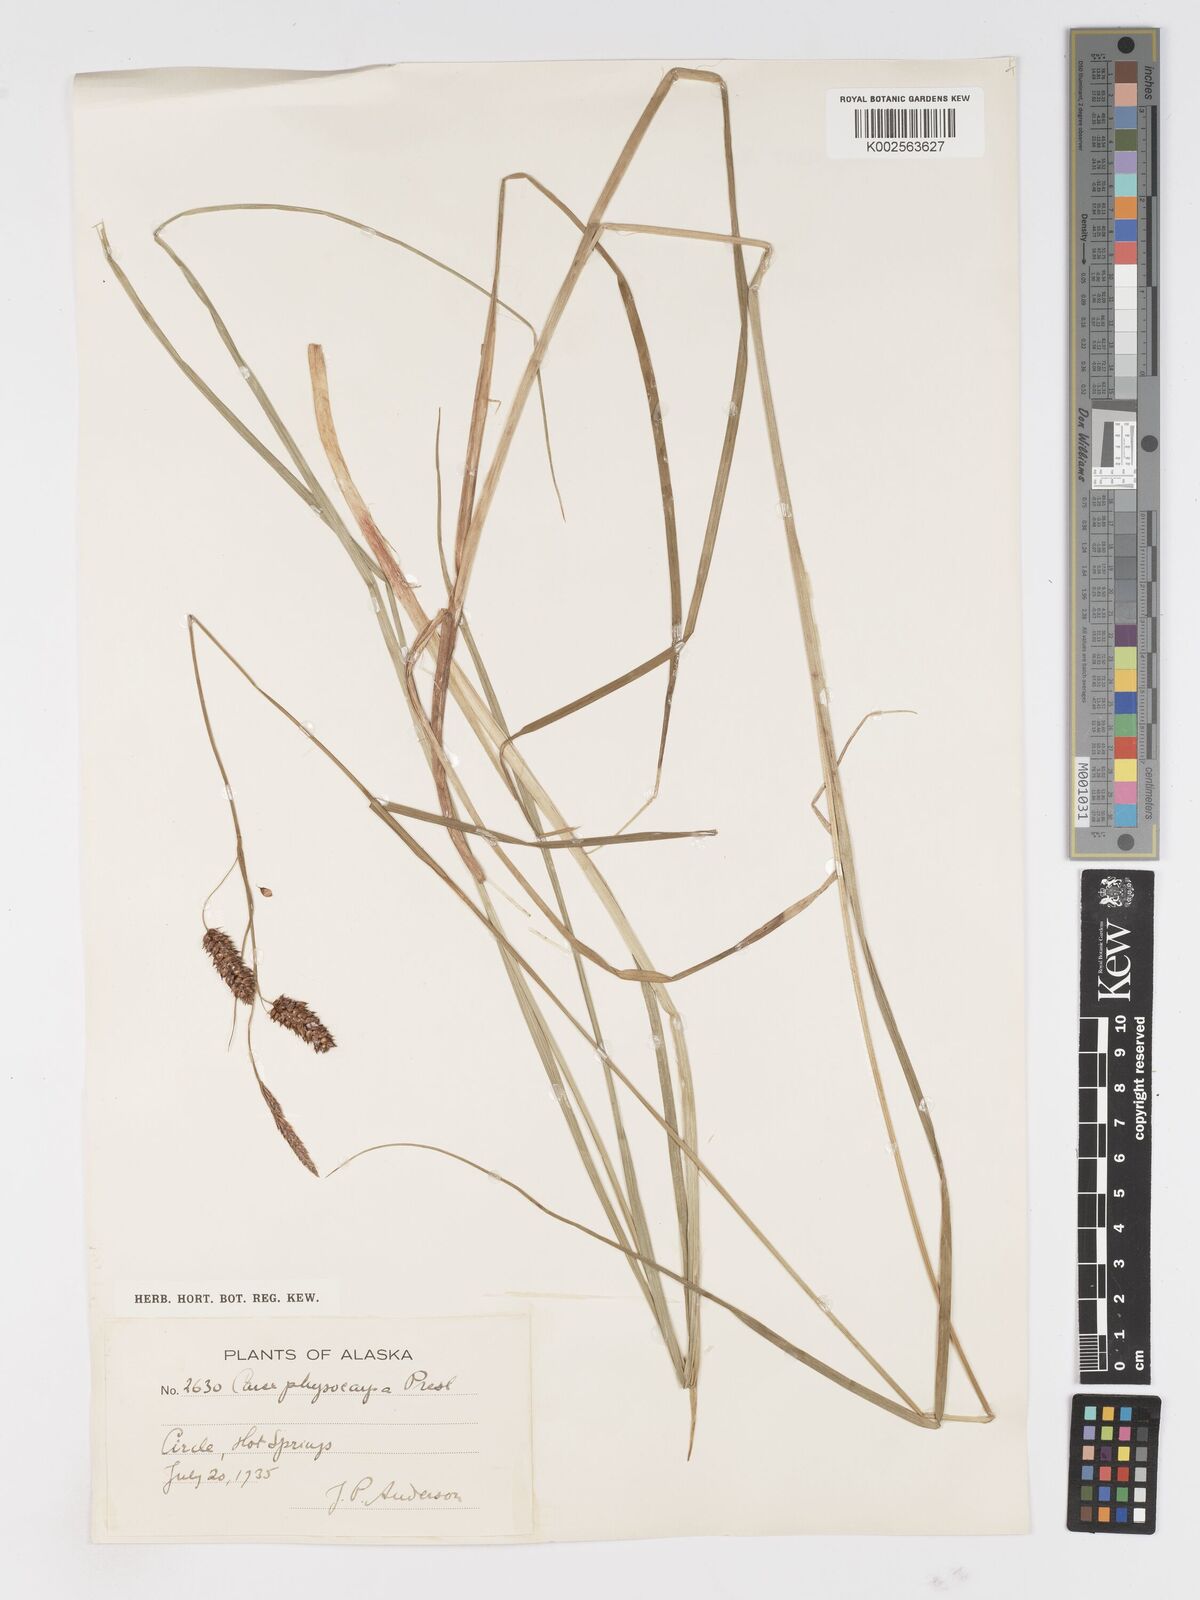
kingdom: Plantae
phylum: Tracheophyta
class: Liliopsida
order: Poales
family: Cyperaceae
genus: Carex
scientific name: Carex saxatilis
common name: Russet sedge
